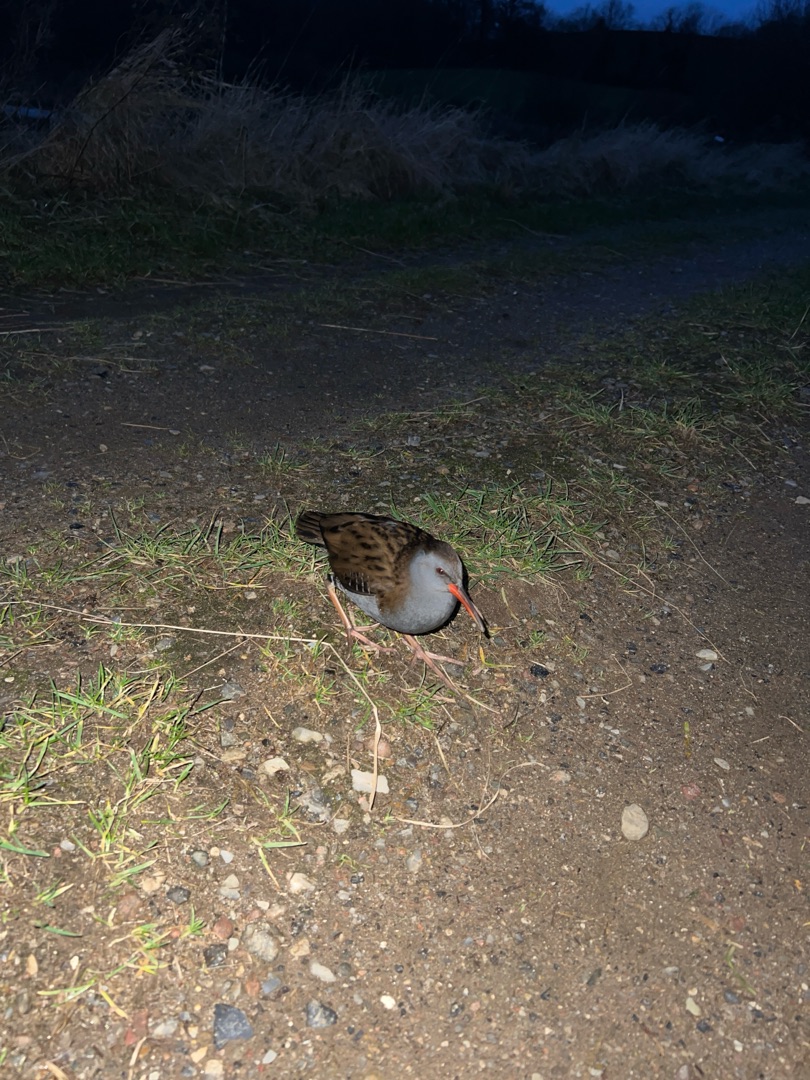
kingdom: Animalia
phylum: Chordata
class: Aves
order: Gruiformes
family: Rallidae
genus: Rallus
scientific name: Rallus aquaticus
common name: Vandrikse
